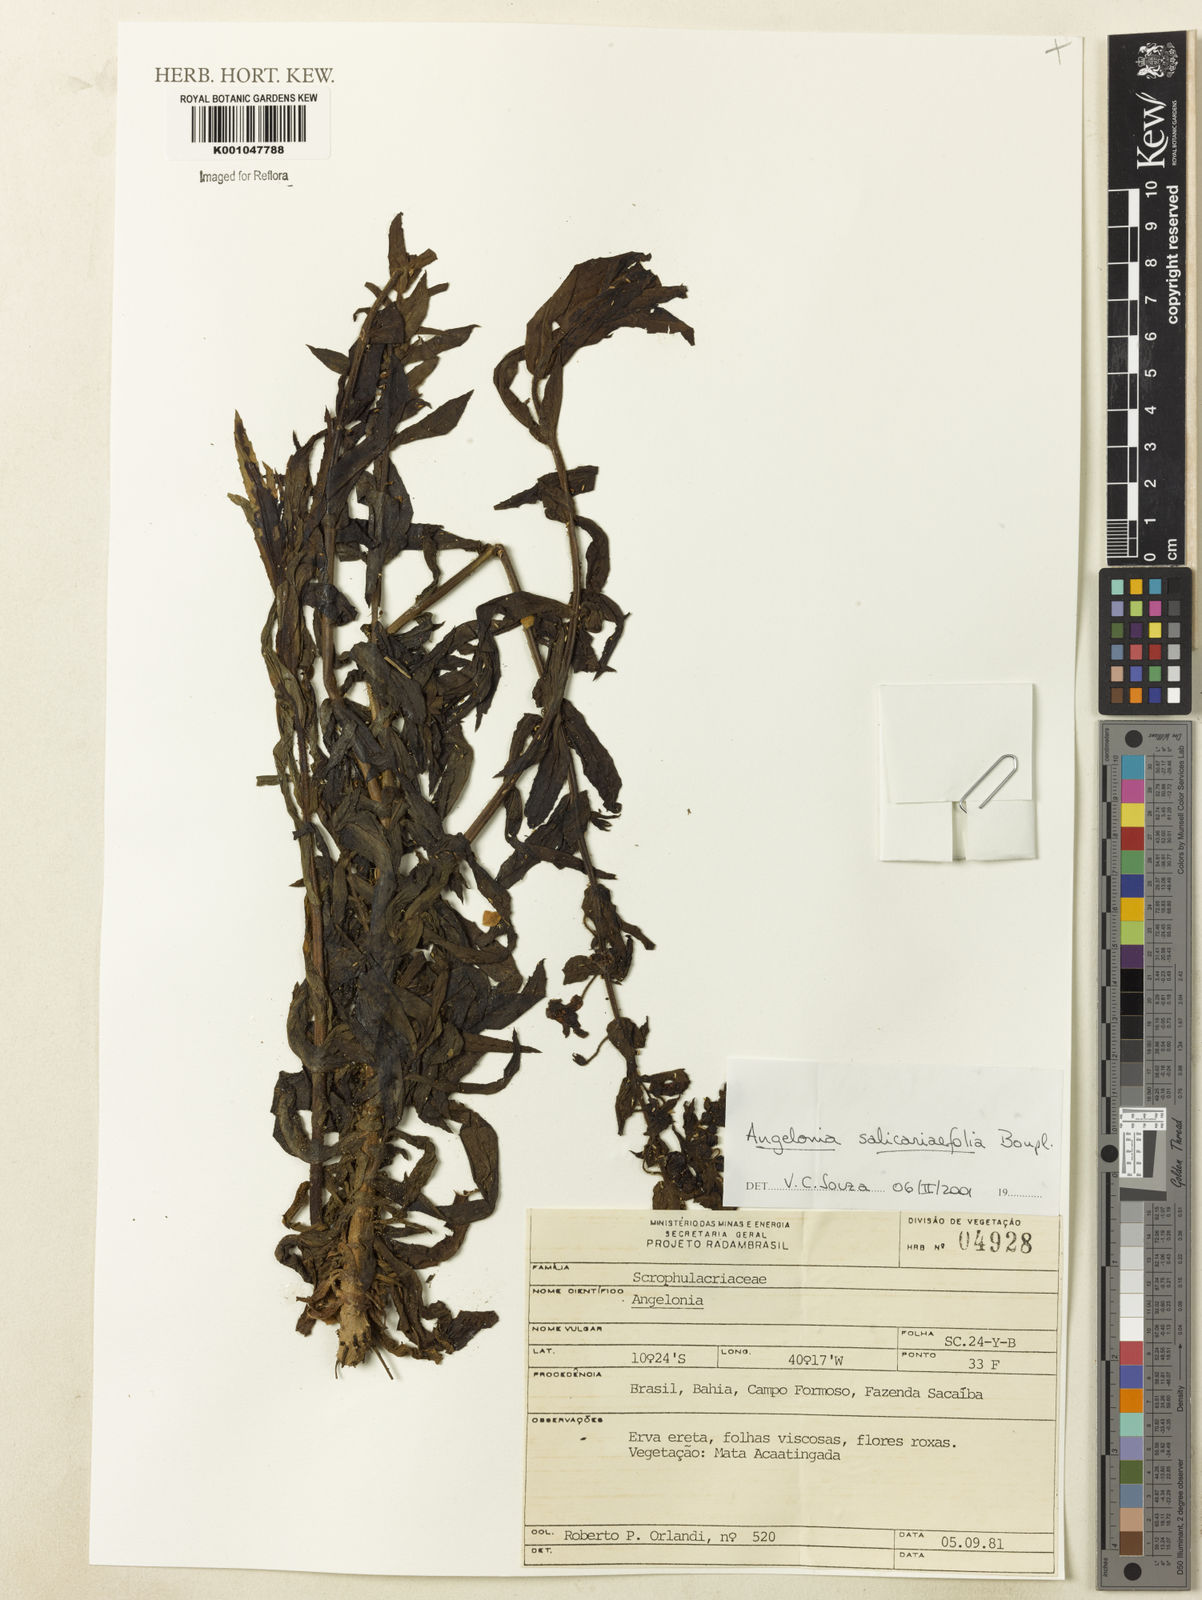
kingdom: Plantae
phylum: Tracheophyta
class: Magnoliopsida
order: Lamiales
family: Plantaginaceae
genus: Angelonia
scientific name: Angelonia salicariifolia
